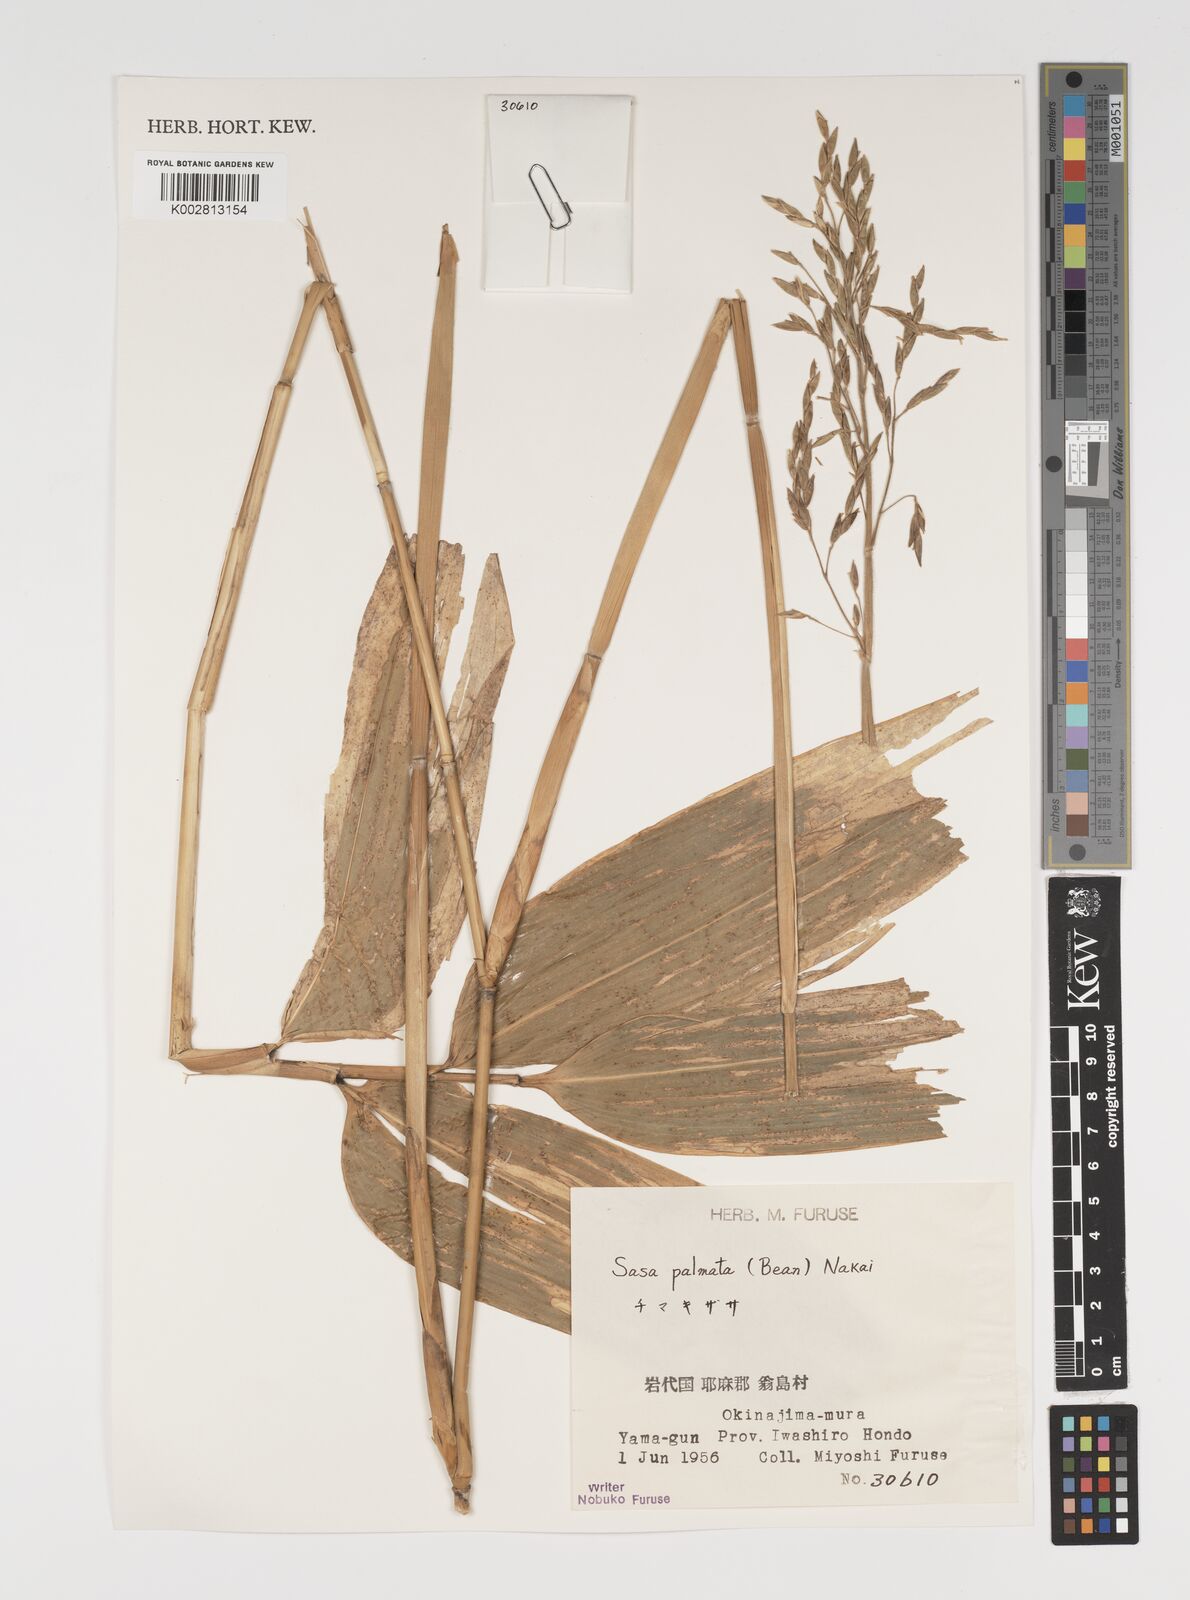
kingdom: Plantae
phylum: Tracheophyta
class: Liliopsida
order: Poales
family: Poaceae
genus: Sasa
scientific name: Sasa palmata
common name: Broad-leaved bamboo
